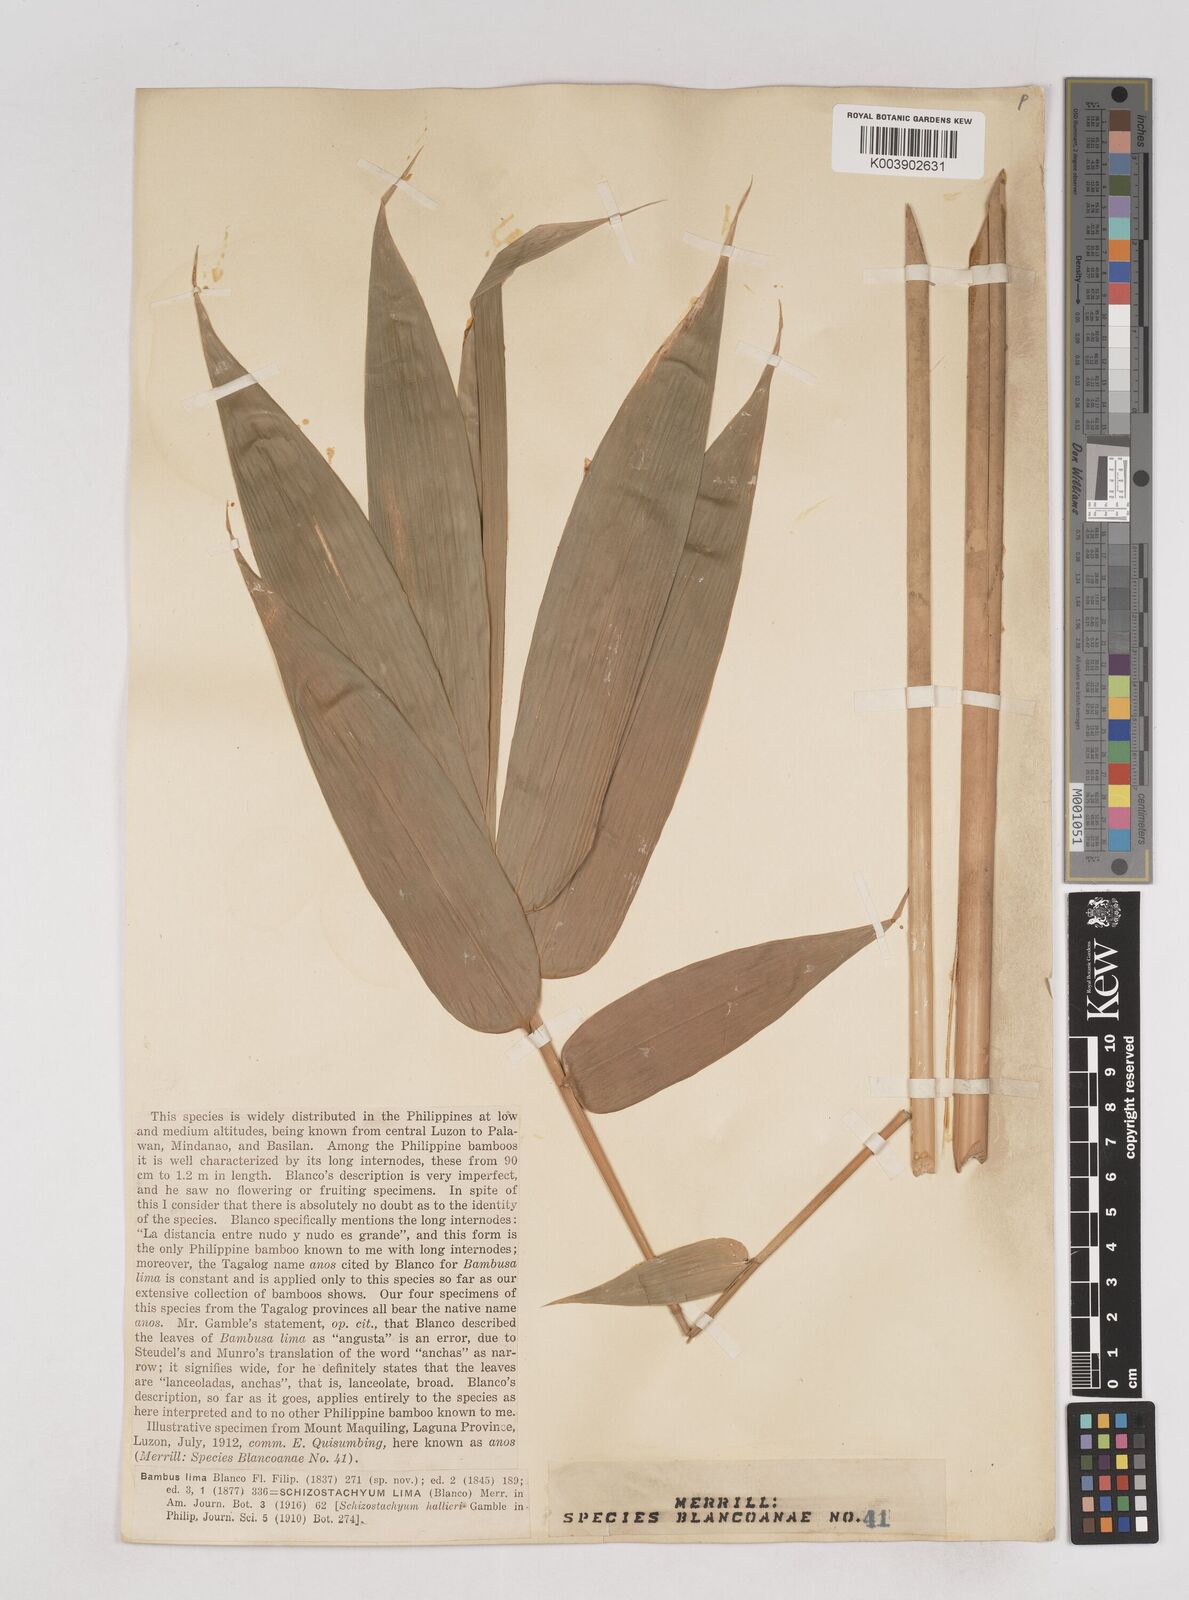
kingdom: Plantae
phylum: Tracheophyta
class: Liliopsida
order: Poales
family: Poaceae
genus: Schizostachyum
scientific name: Schizostachyum lima
